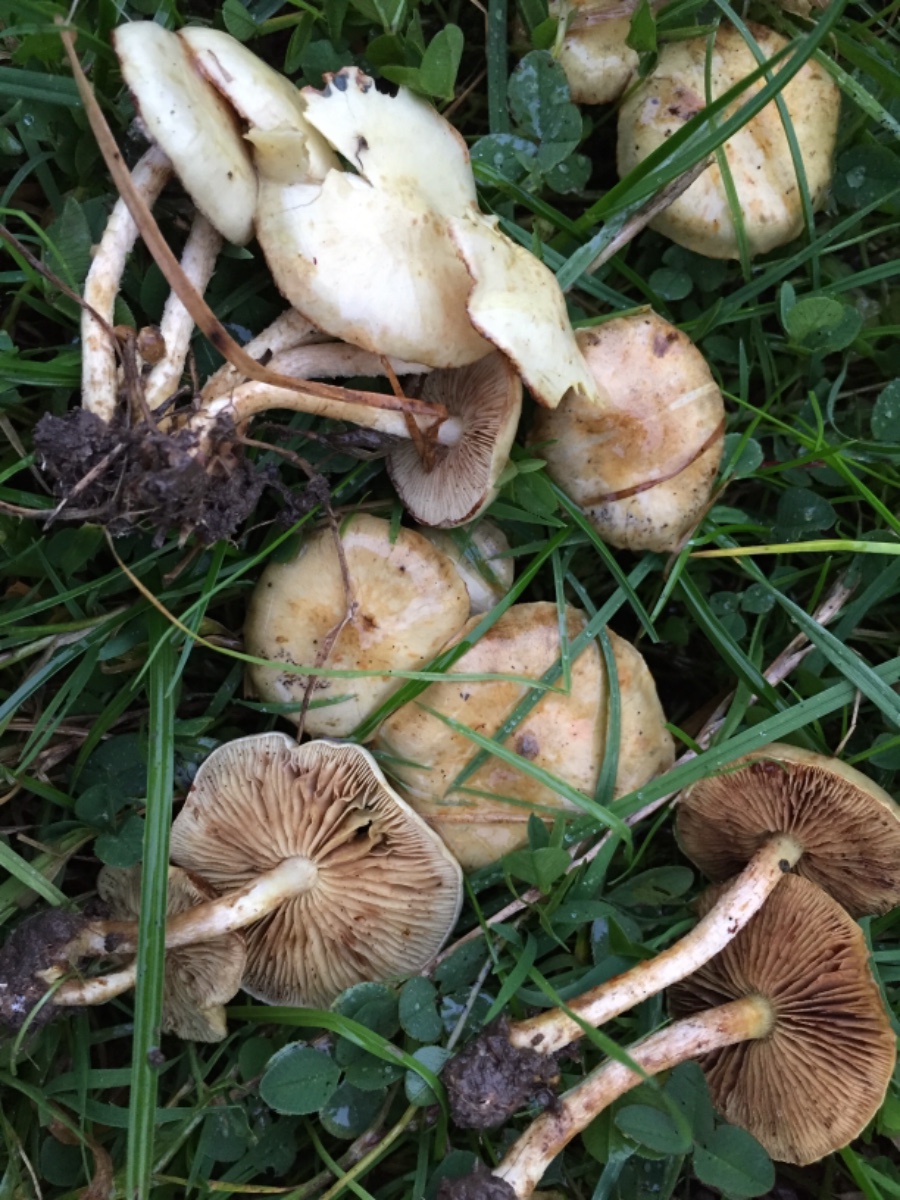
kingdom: Fungi
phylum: Basidiomycota
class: Agaricomycetes
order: Agaricales
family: Strophariaceae
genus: Pholiota
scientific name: Pholiota gummosa
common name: grøngul skælhat
